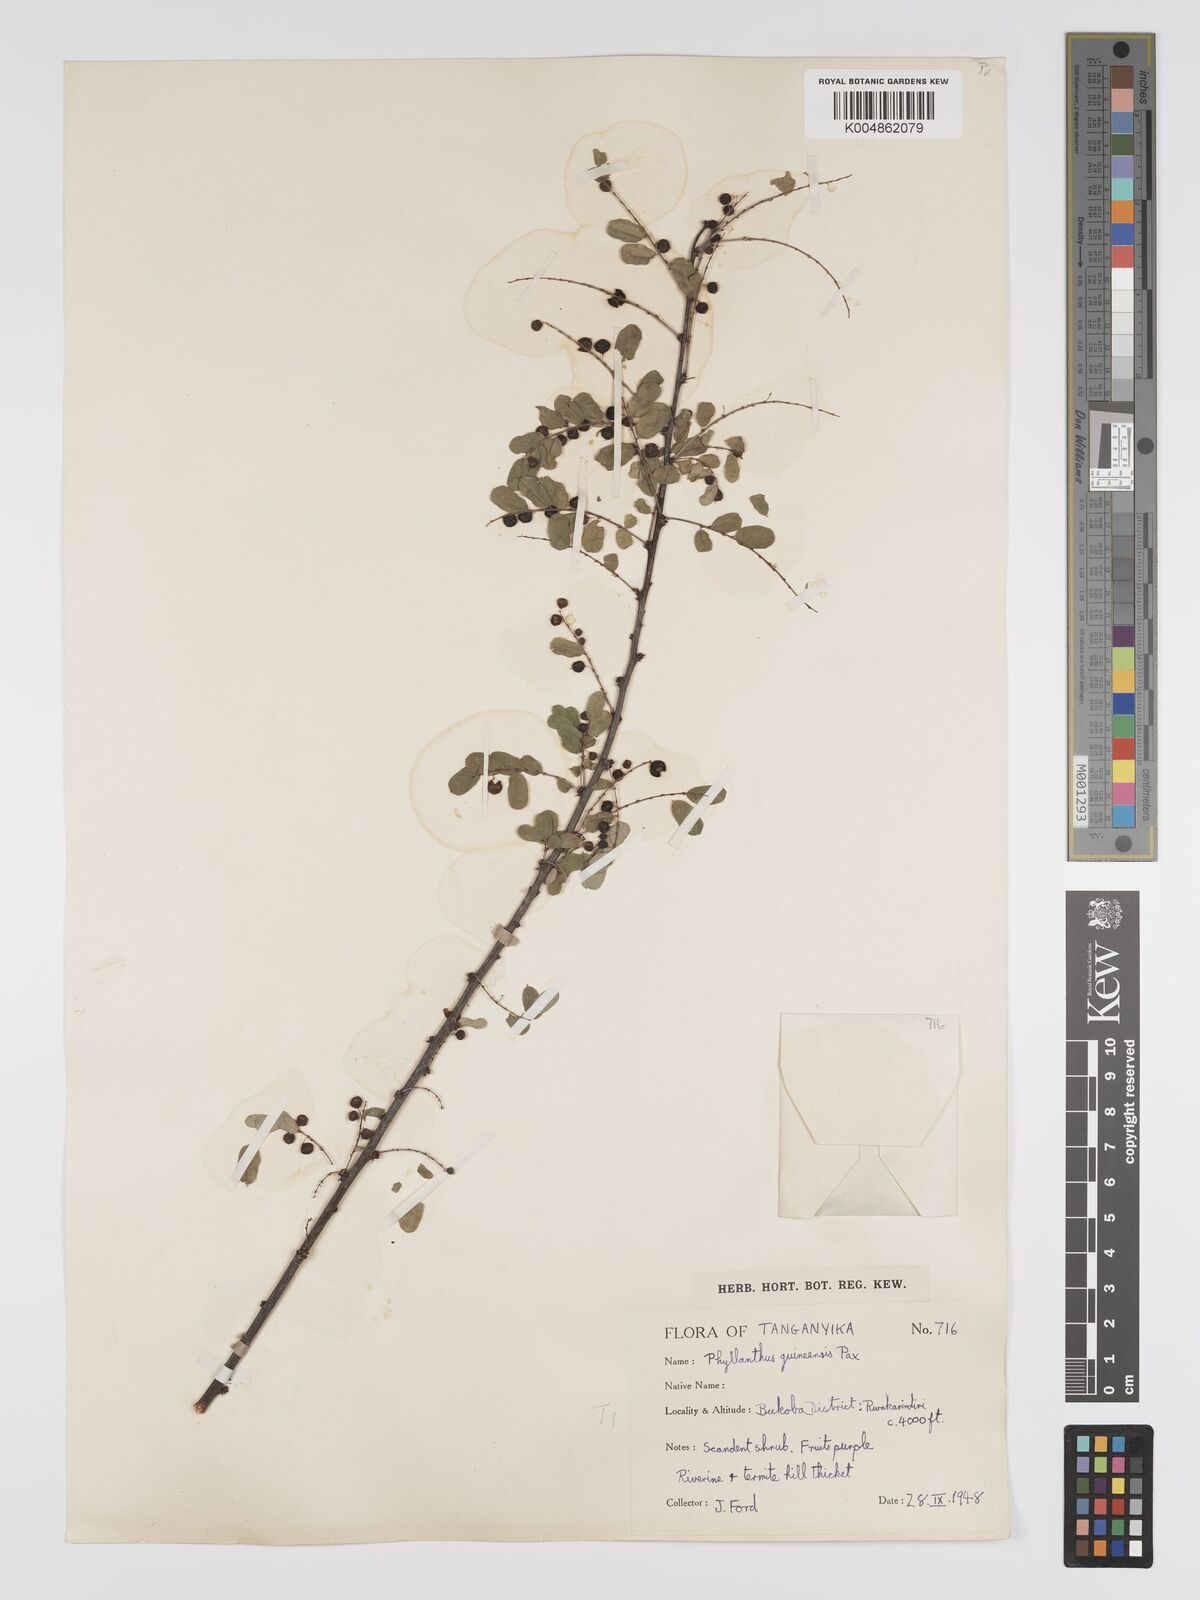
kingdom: Plantae
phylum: Tracheophyta
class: Magnoliopsida
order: Malpighiales
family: Phyllanthaceae
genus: Phyllanthus
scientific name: Phyllanthus ovalifolius
